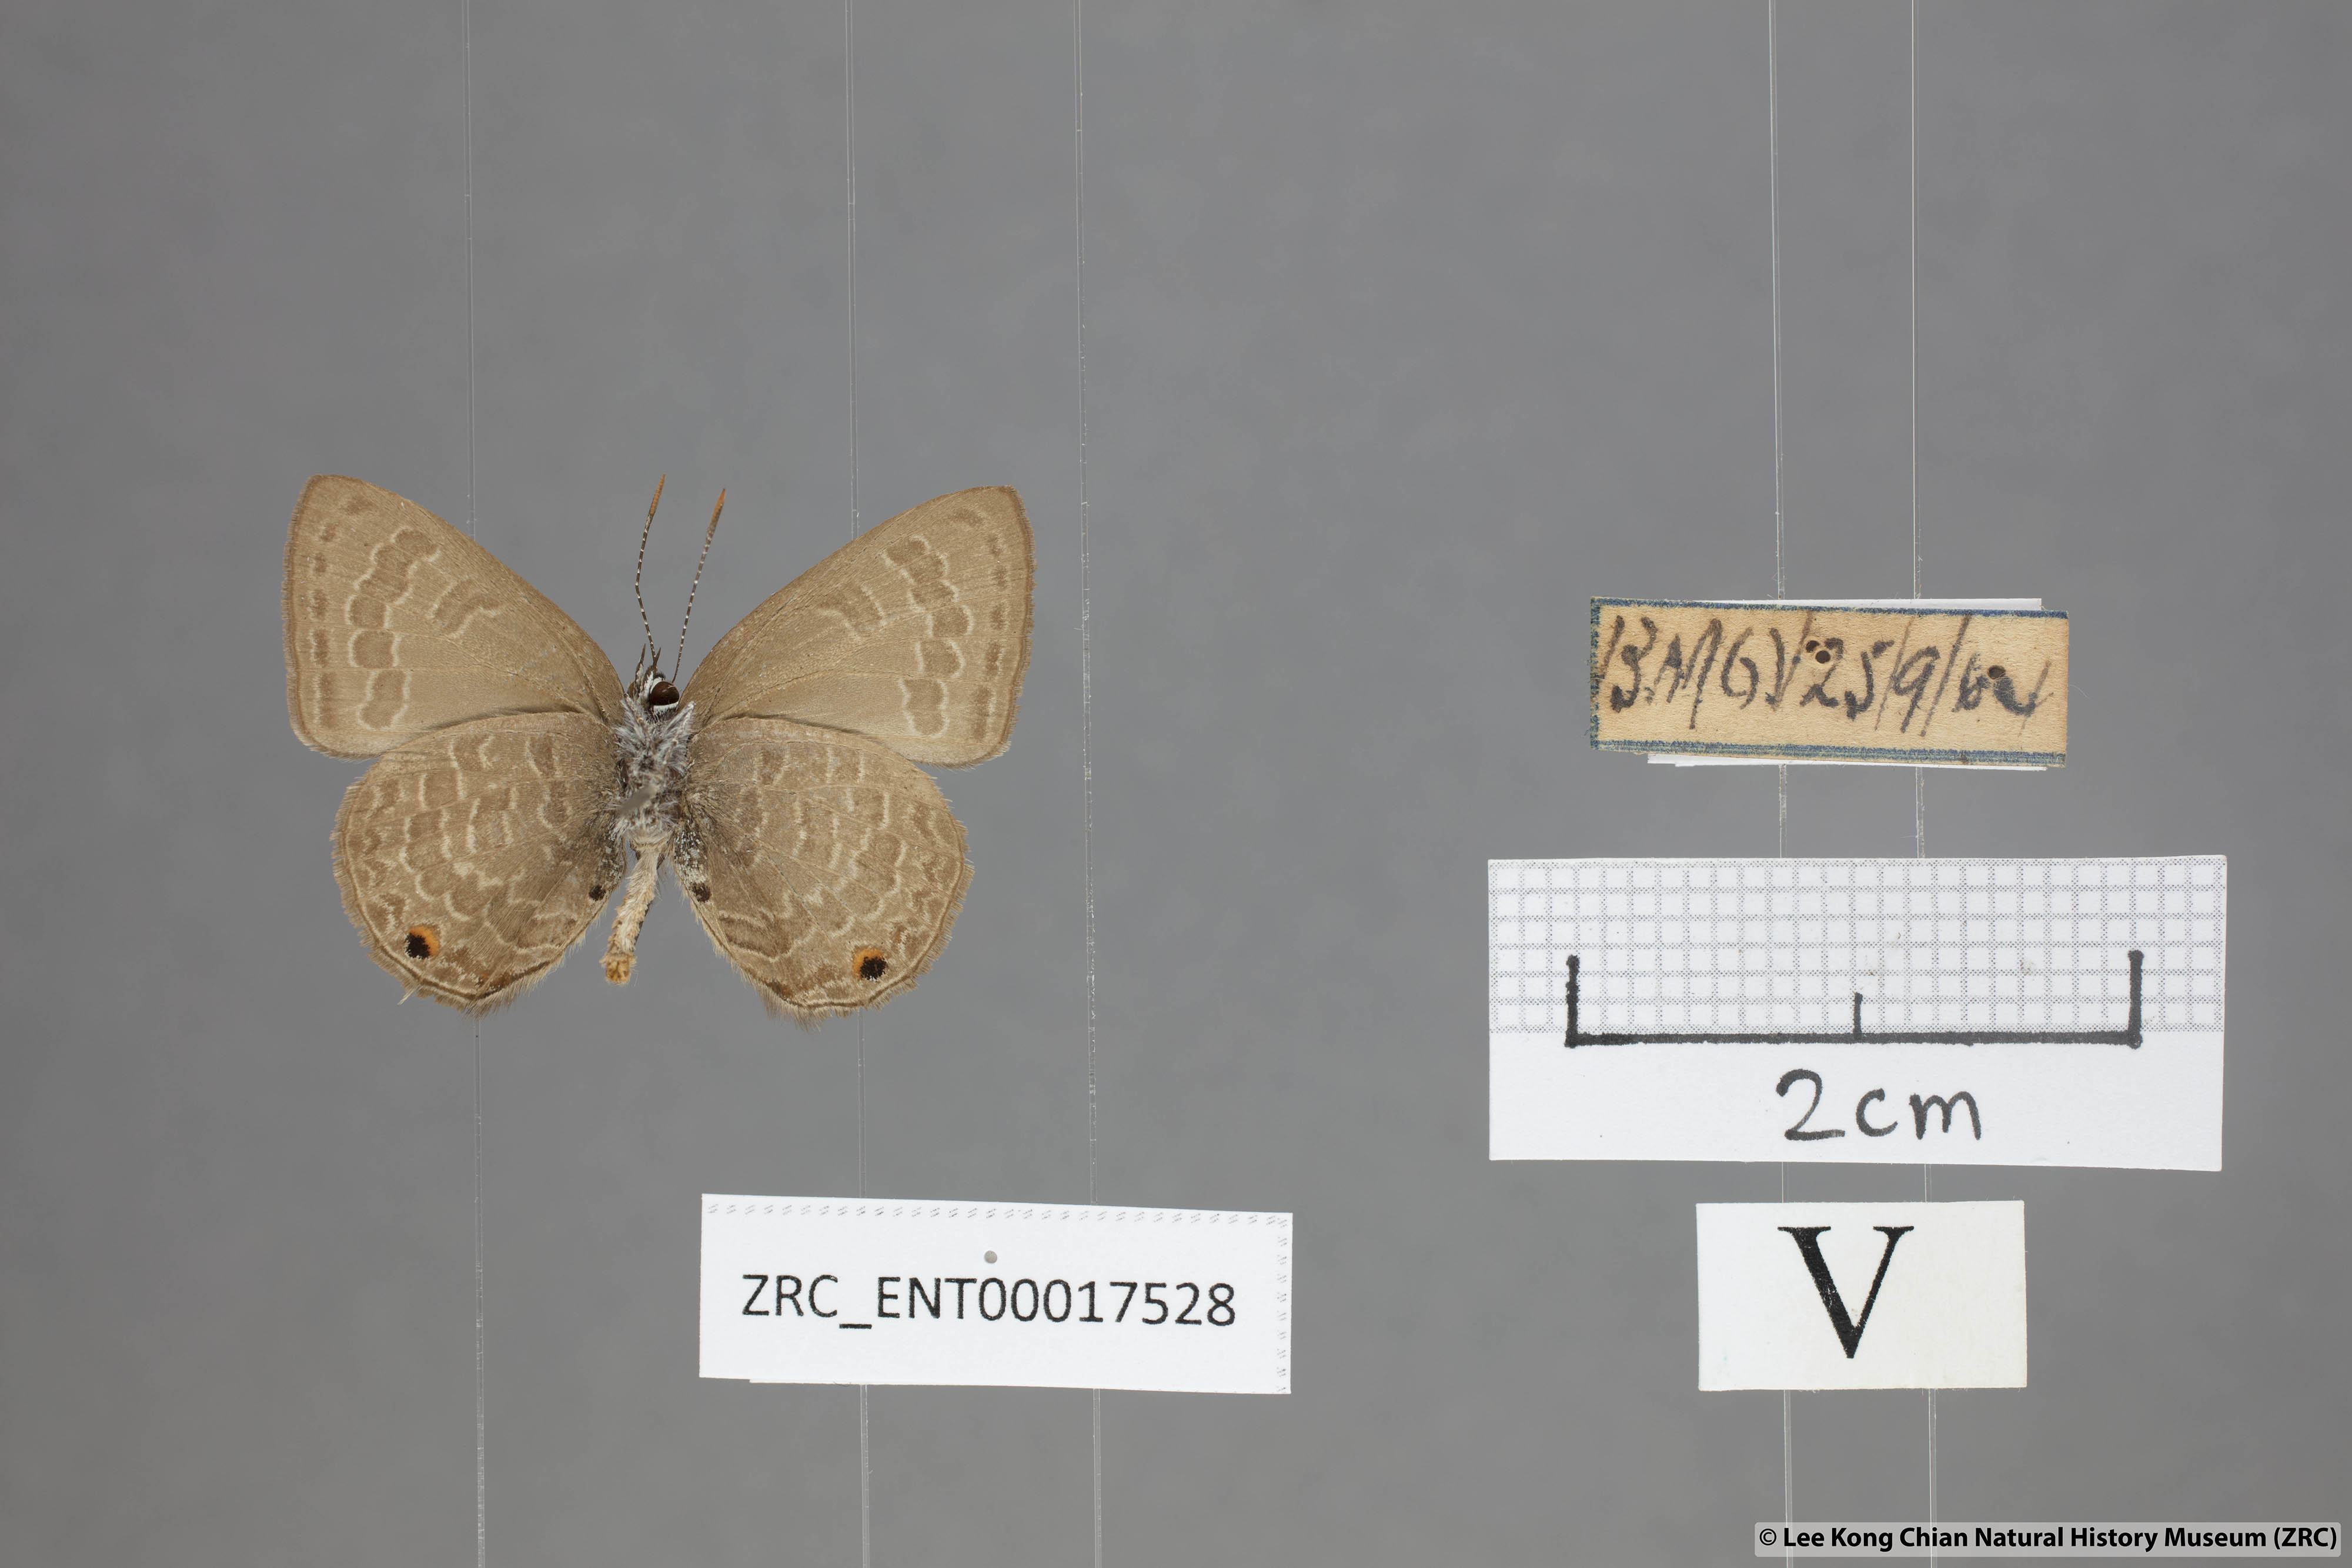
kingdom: Animalia
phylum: Arthropoda
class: Insecta
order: Lepidoptera
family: Lycaenidae
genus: Anthene
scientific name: Anthene emolus
